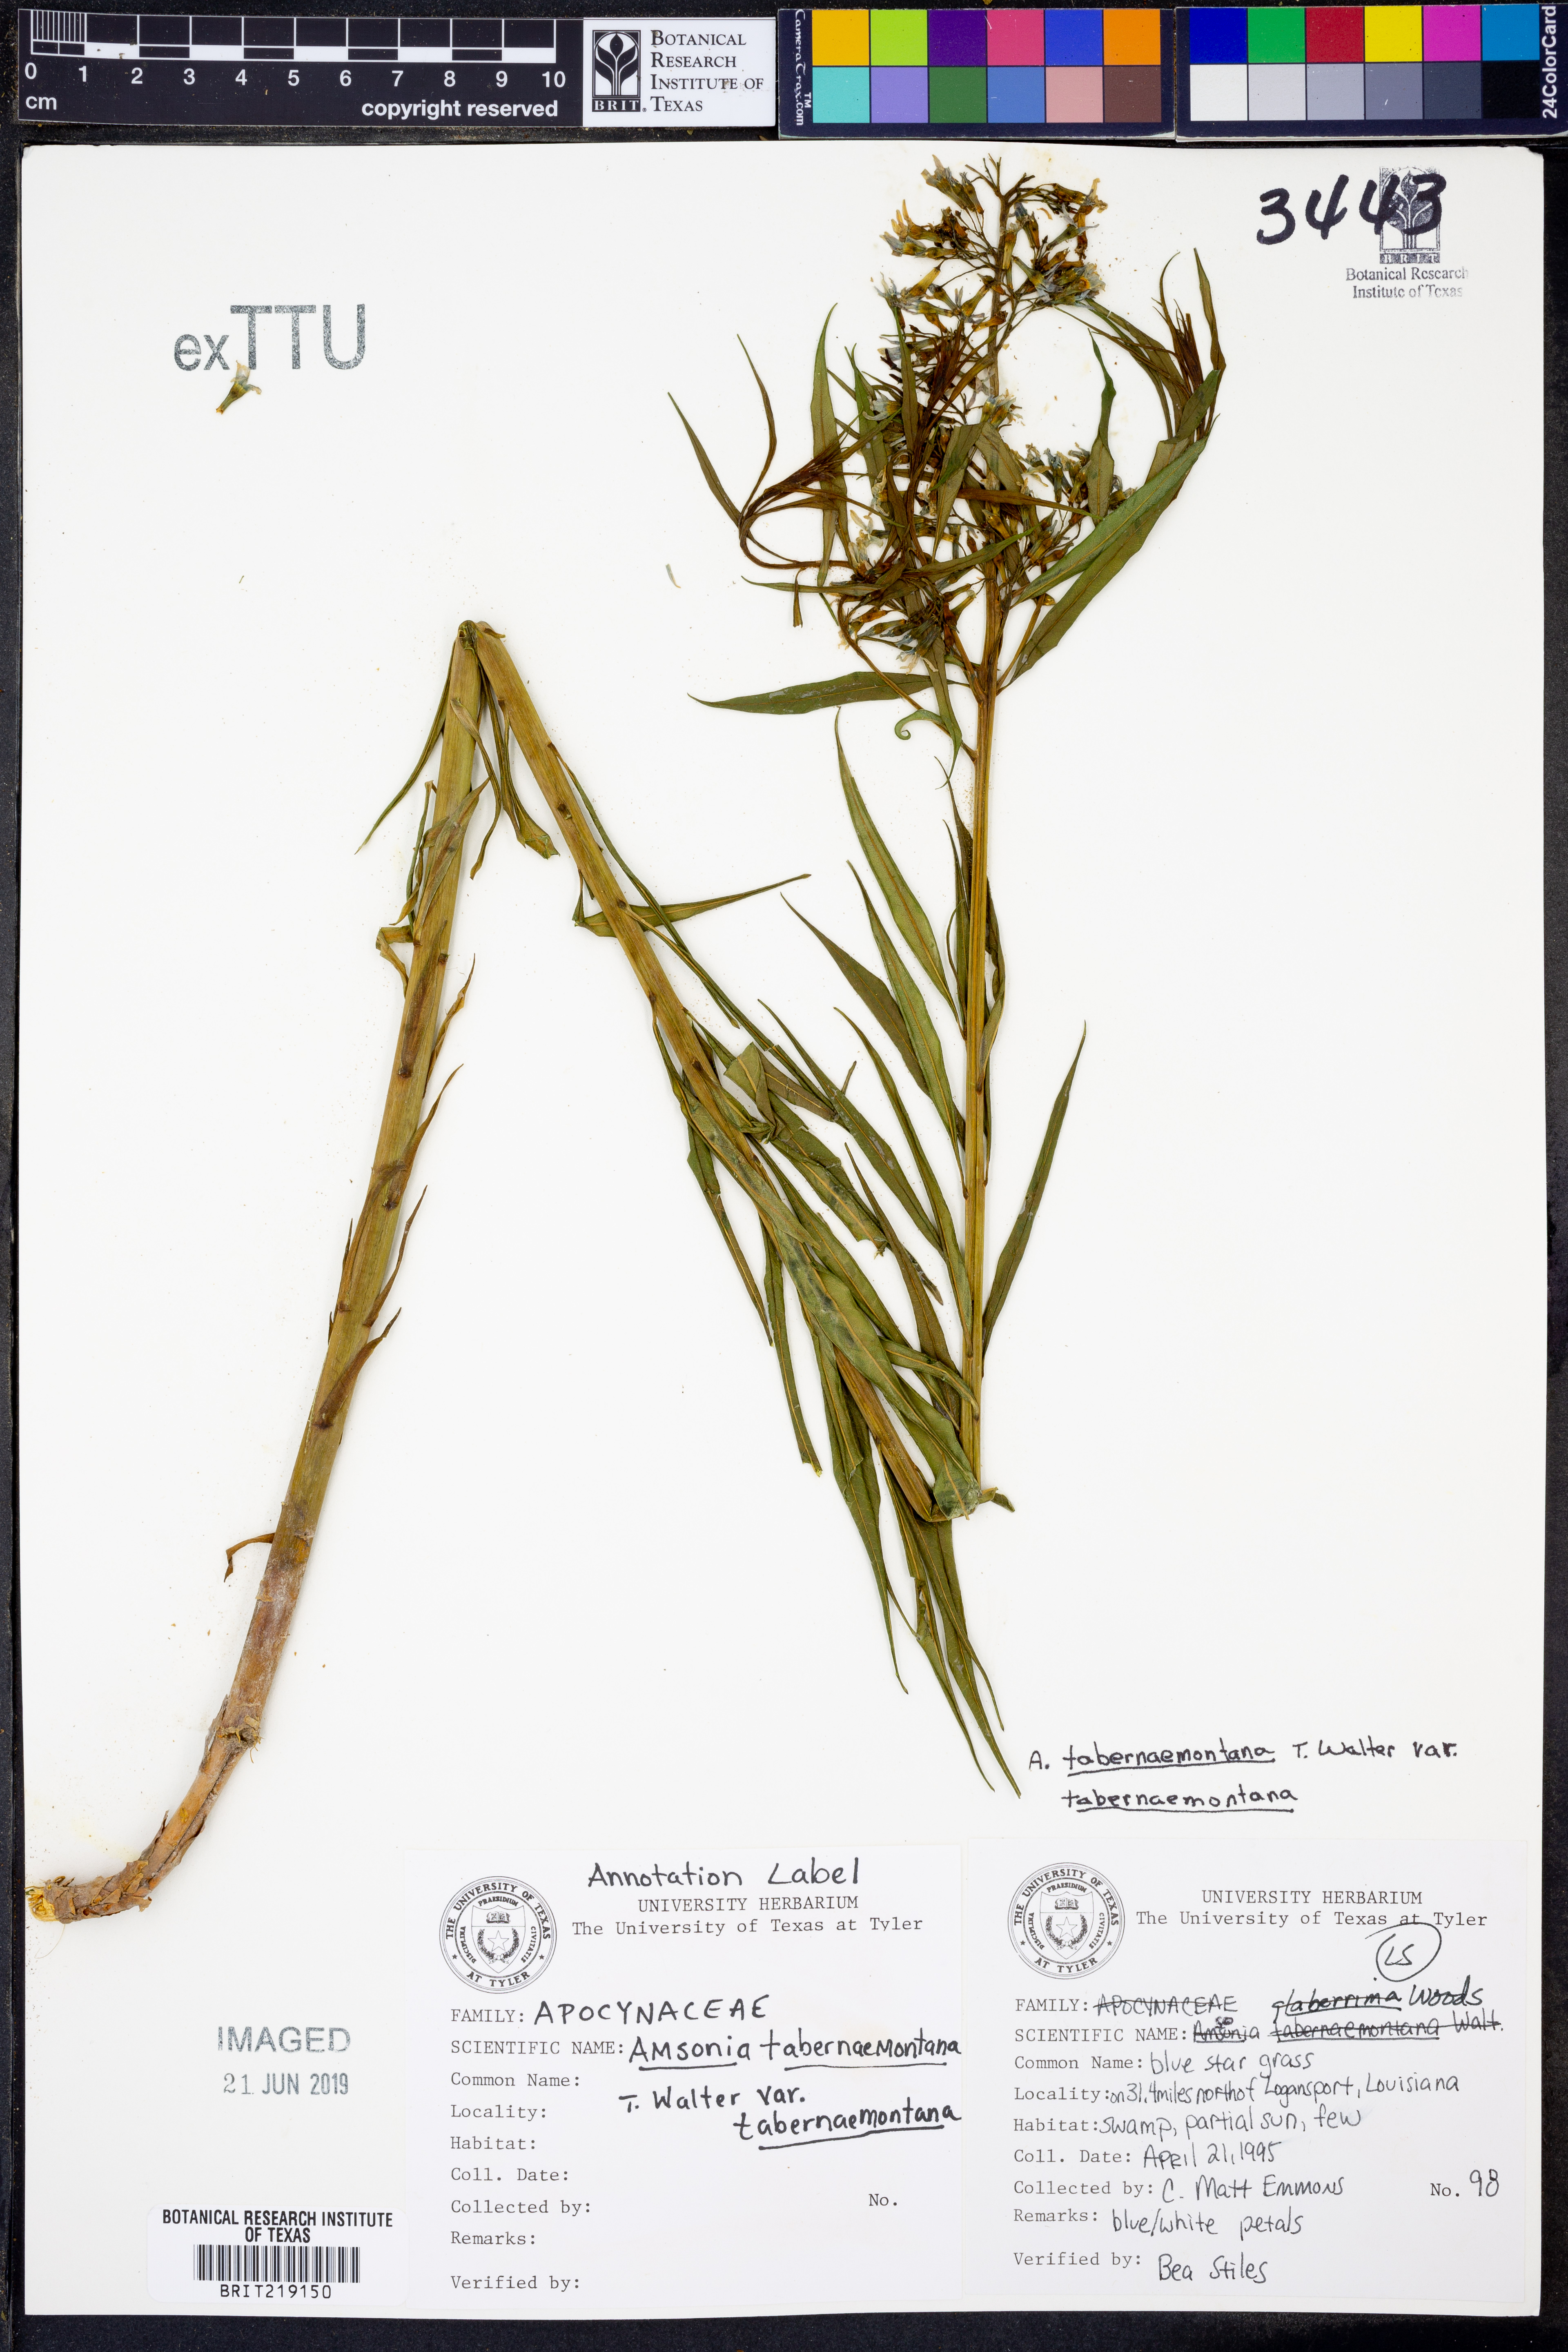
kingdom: Plantae
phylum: Tracheophyta
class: Magnoliopsida
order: Gentianales
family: Apocynaceae
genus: Amsonia
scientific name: Amsonia tabernaemontana
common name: Texas-star
